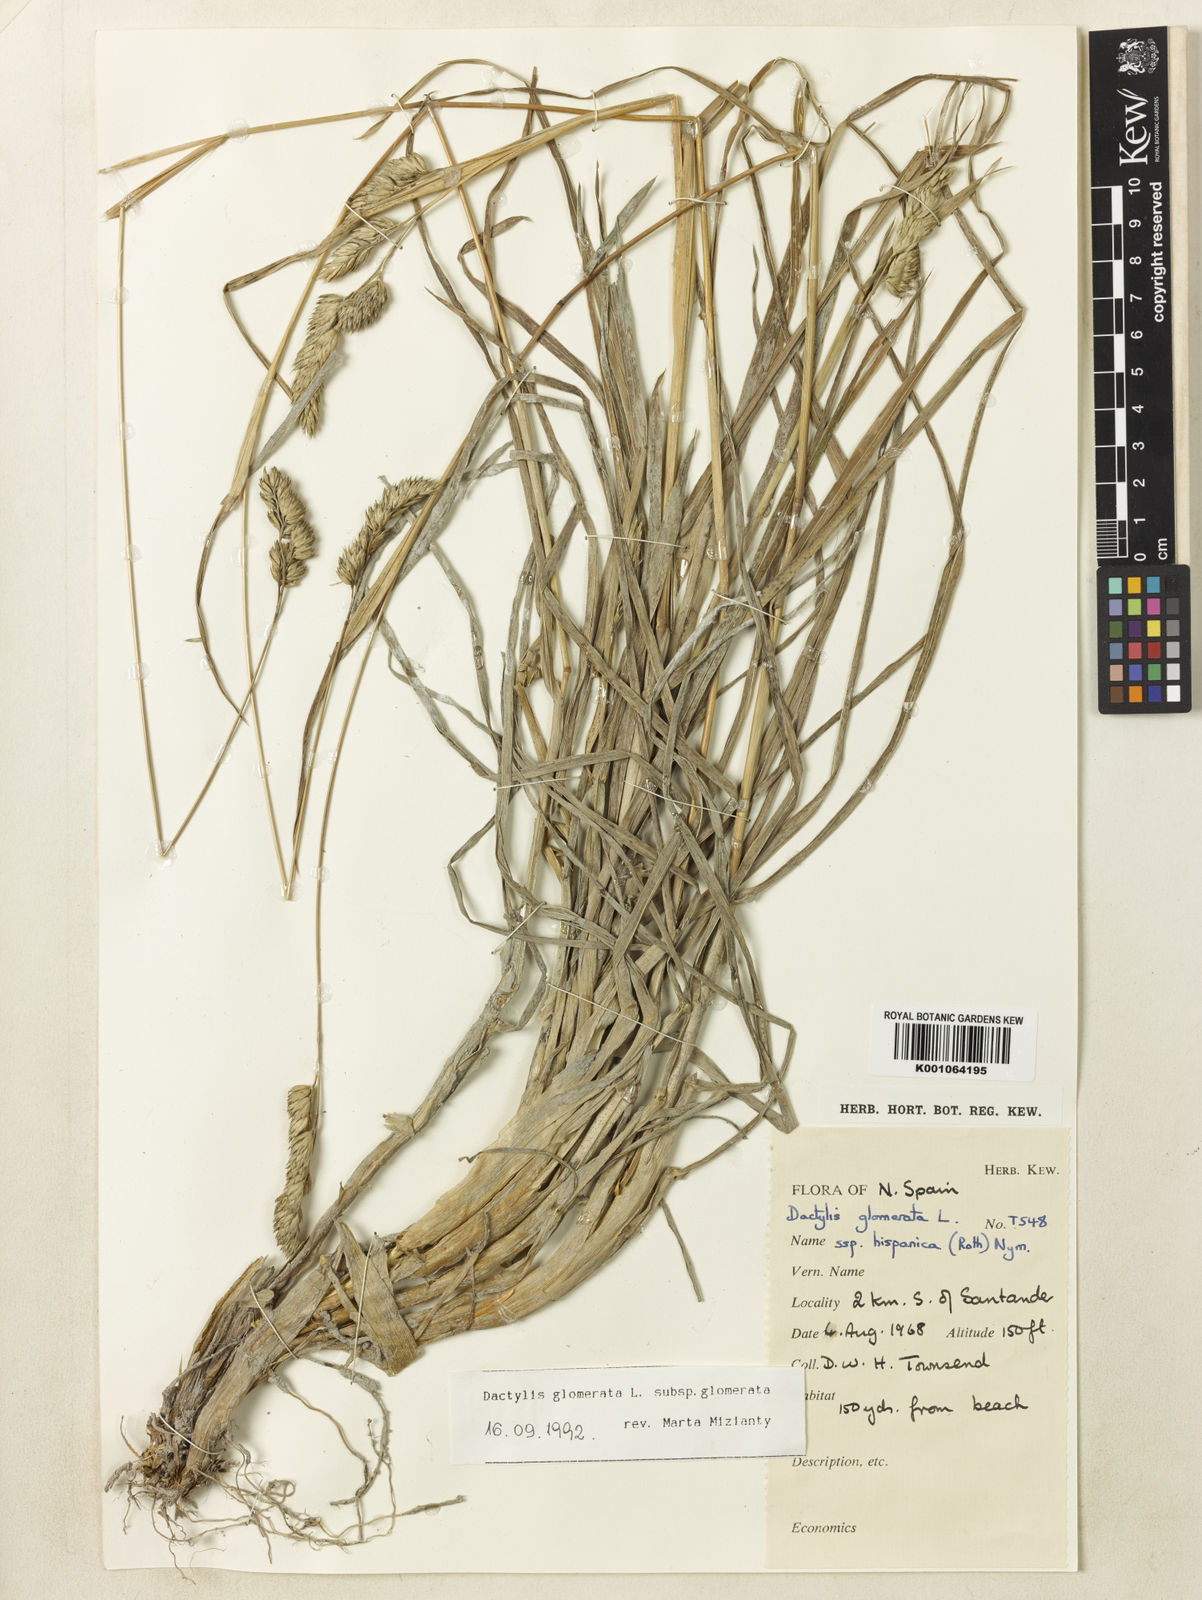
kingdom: Plantae
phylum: Tracheophyta
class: Liliopsida
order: Poales
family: Poaceae
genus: Dactylis
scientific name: Dactylis glomerata
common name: Orchardgrass
